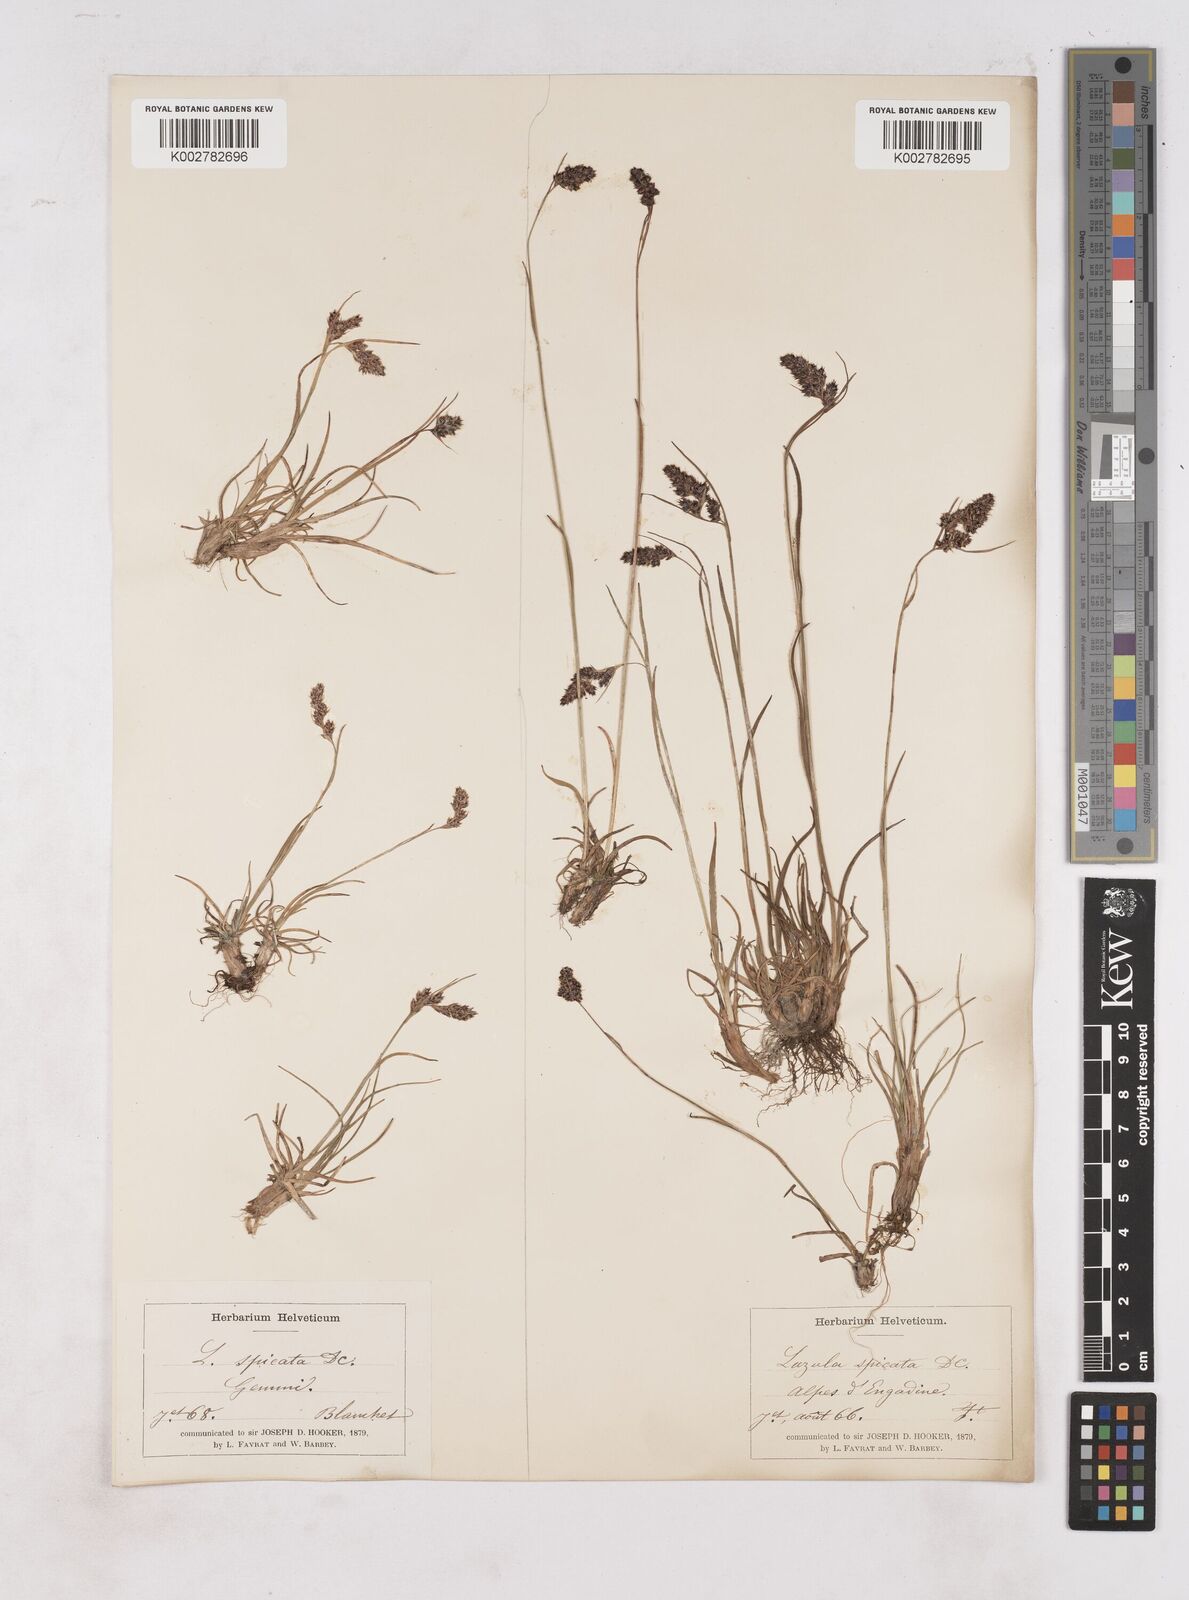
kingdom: Plantae
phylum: Tracheophyta
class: Liliopsida
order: Poales
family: Juncaceae
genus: Luzula
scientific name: Luzula spicata
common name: Spiked wood-rush
